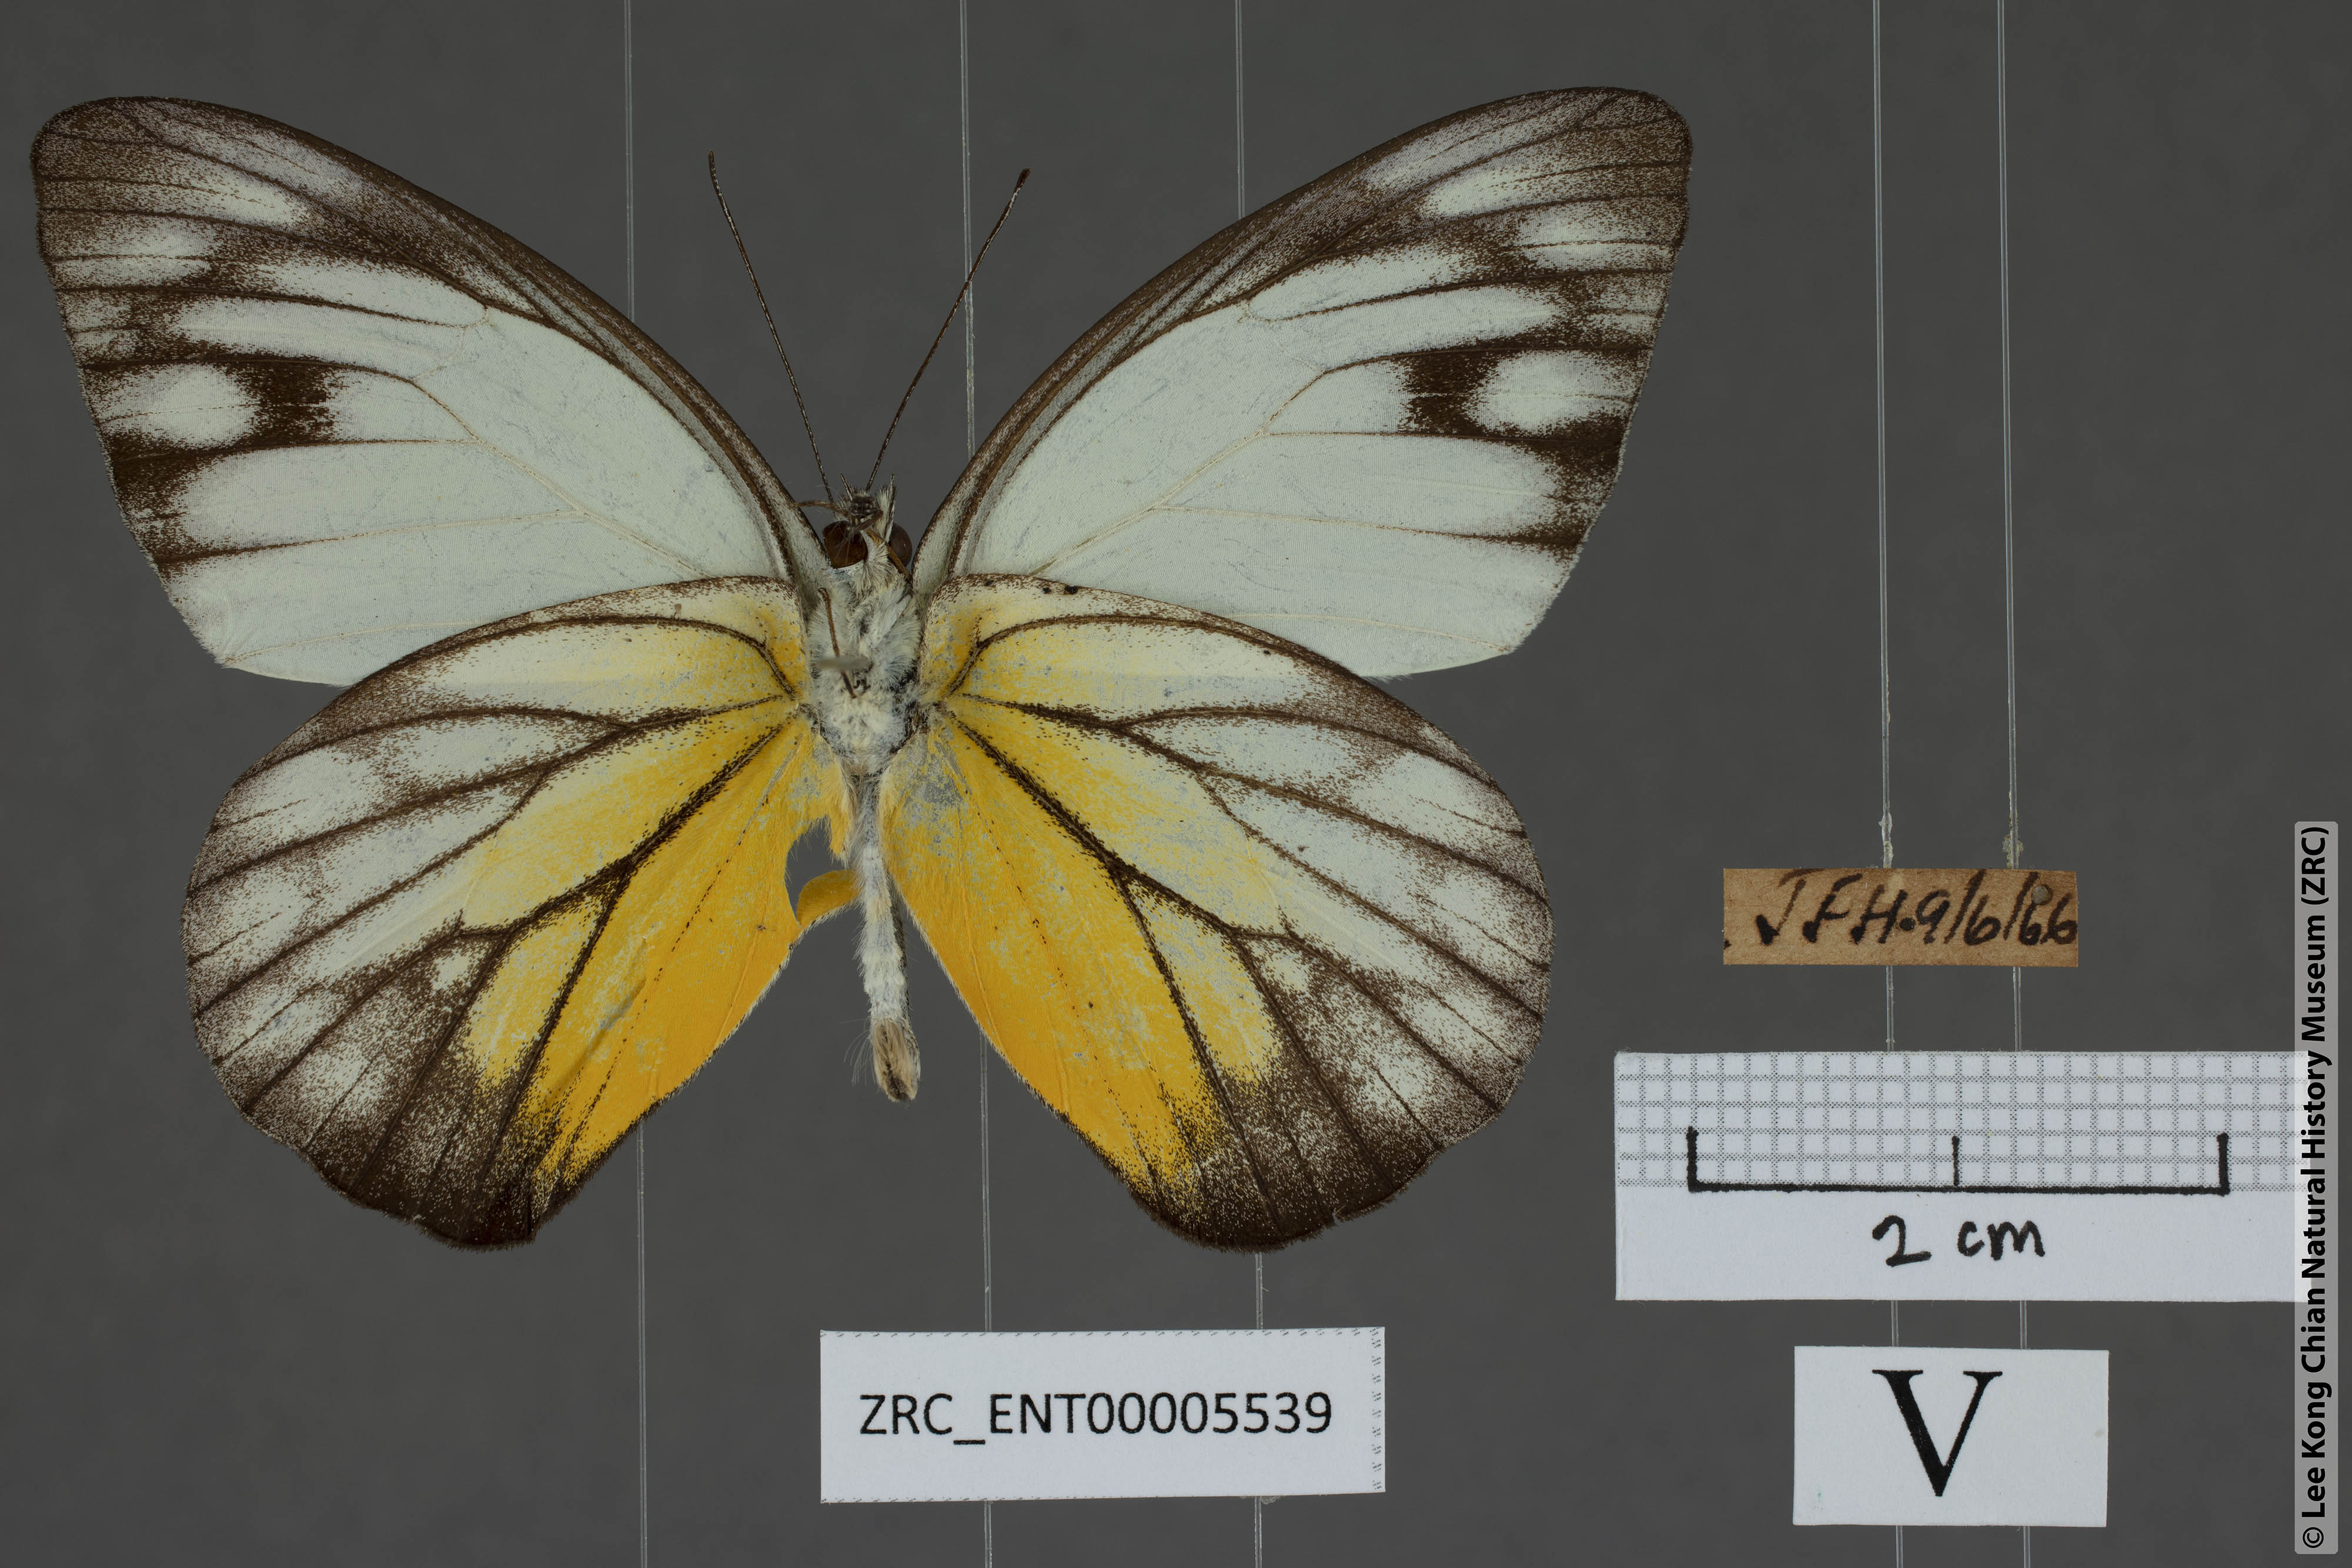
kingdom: Animalia
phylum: Arthropoda
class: Insecta
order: Lepidoptera
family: Pieridae
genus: Appias
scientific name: Appias cardena
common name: Yellow puffin
